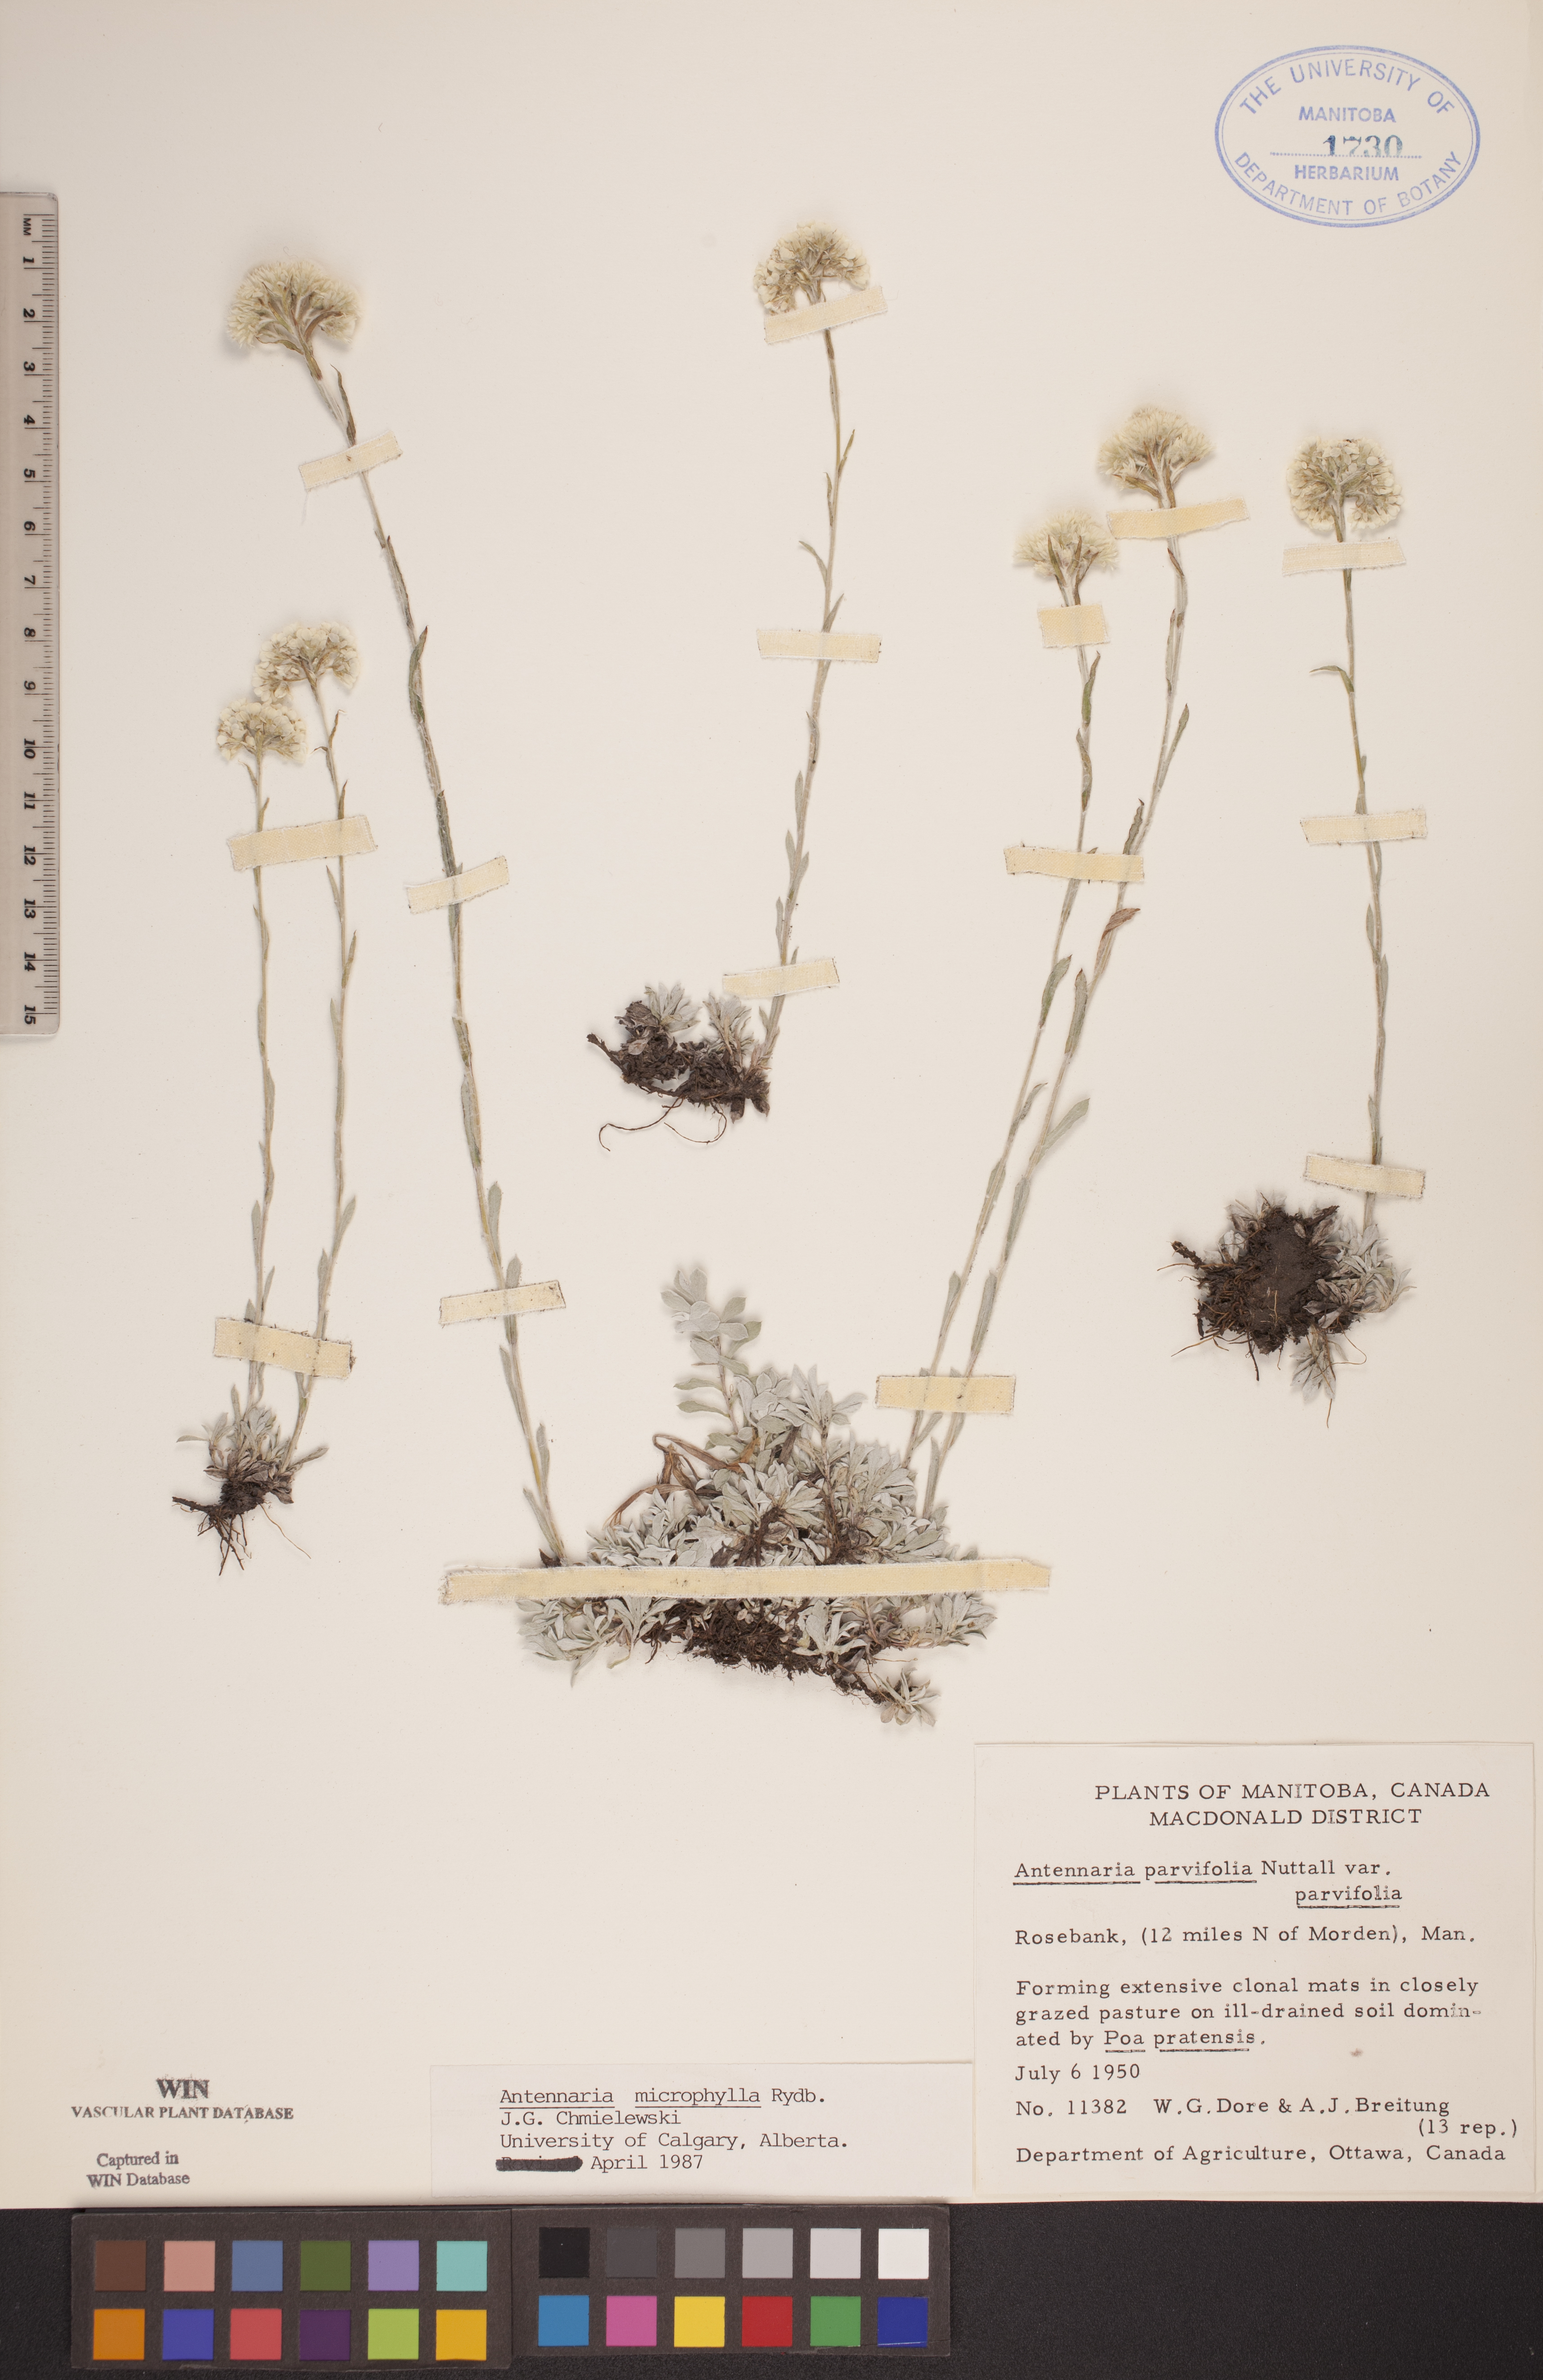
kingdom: Plantae
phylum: Tracheophyta
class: Magnoliopsida
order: Asterales
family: Asteraceae
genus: Antennaria
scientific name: Antennaria microphylla
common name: Littleleaf pussytoes
